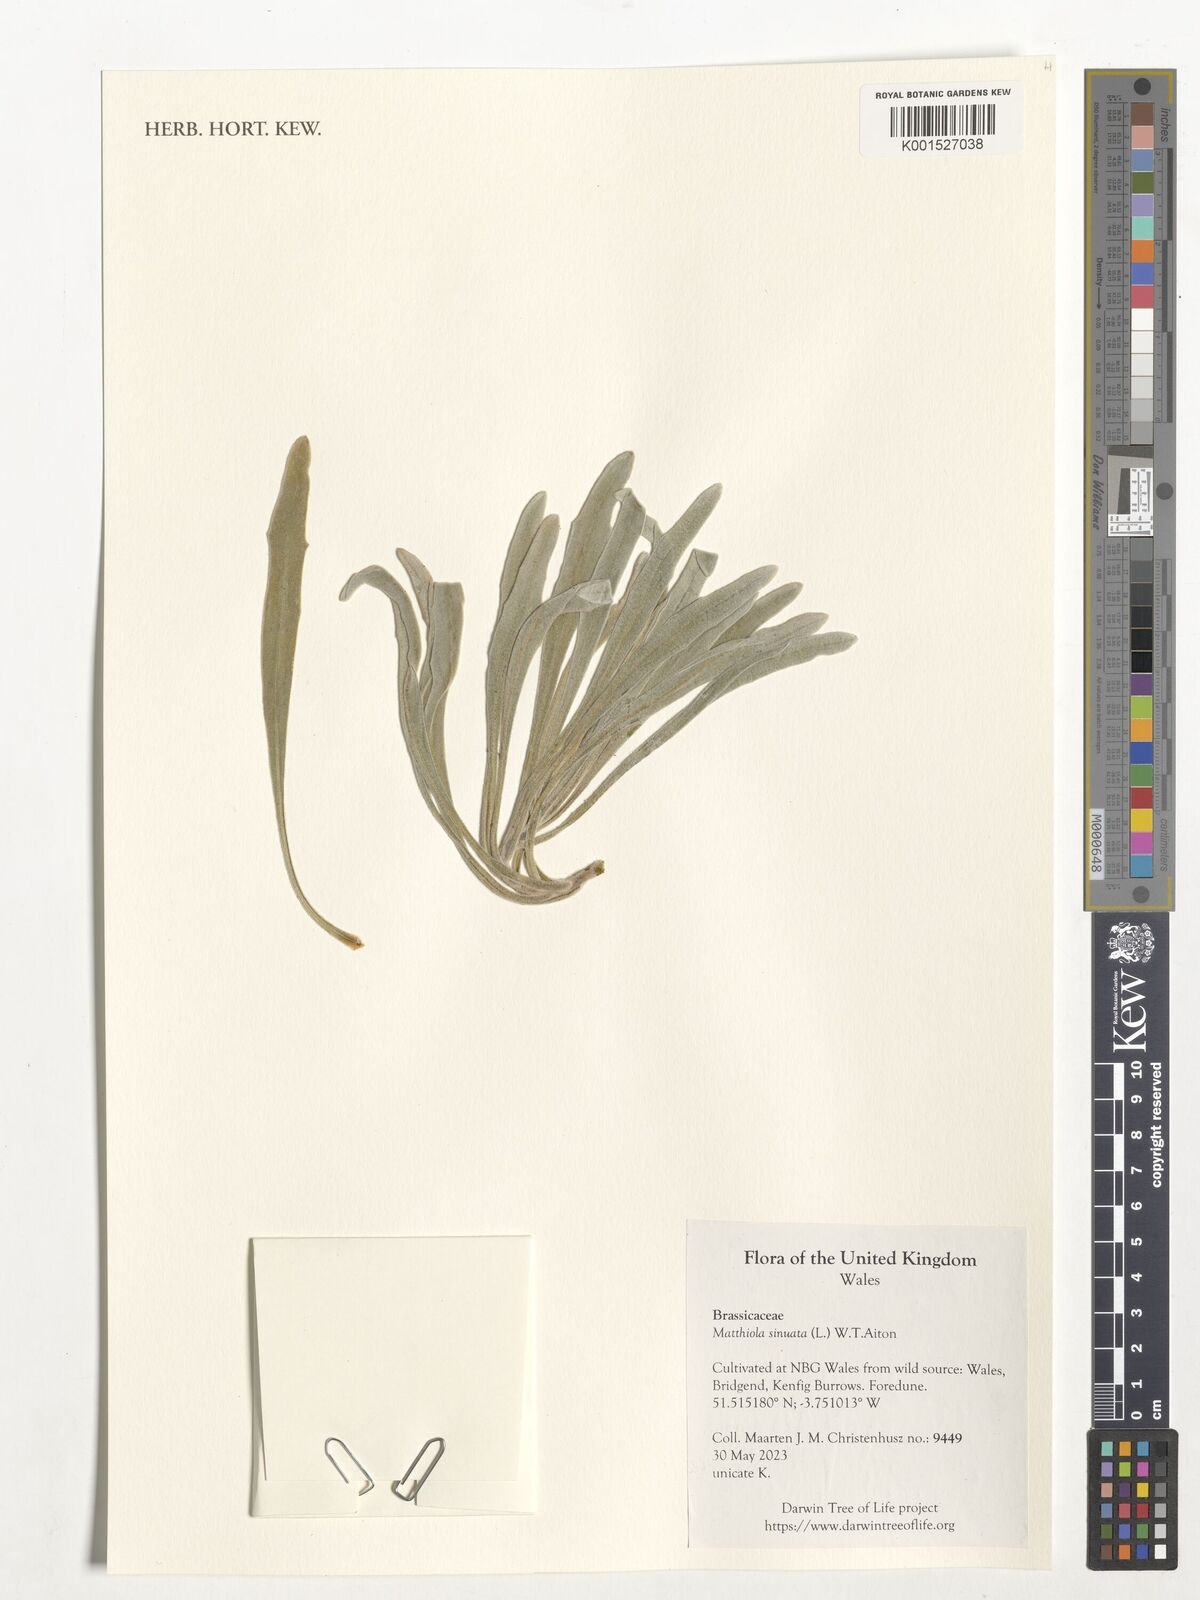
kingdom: Plantae
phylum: Tracheophyta
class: Magnoliopsida
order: Brassicales
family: Brassicaceae
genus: Matthiola
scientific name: Matthiola sinuata
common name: Sea stock
